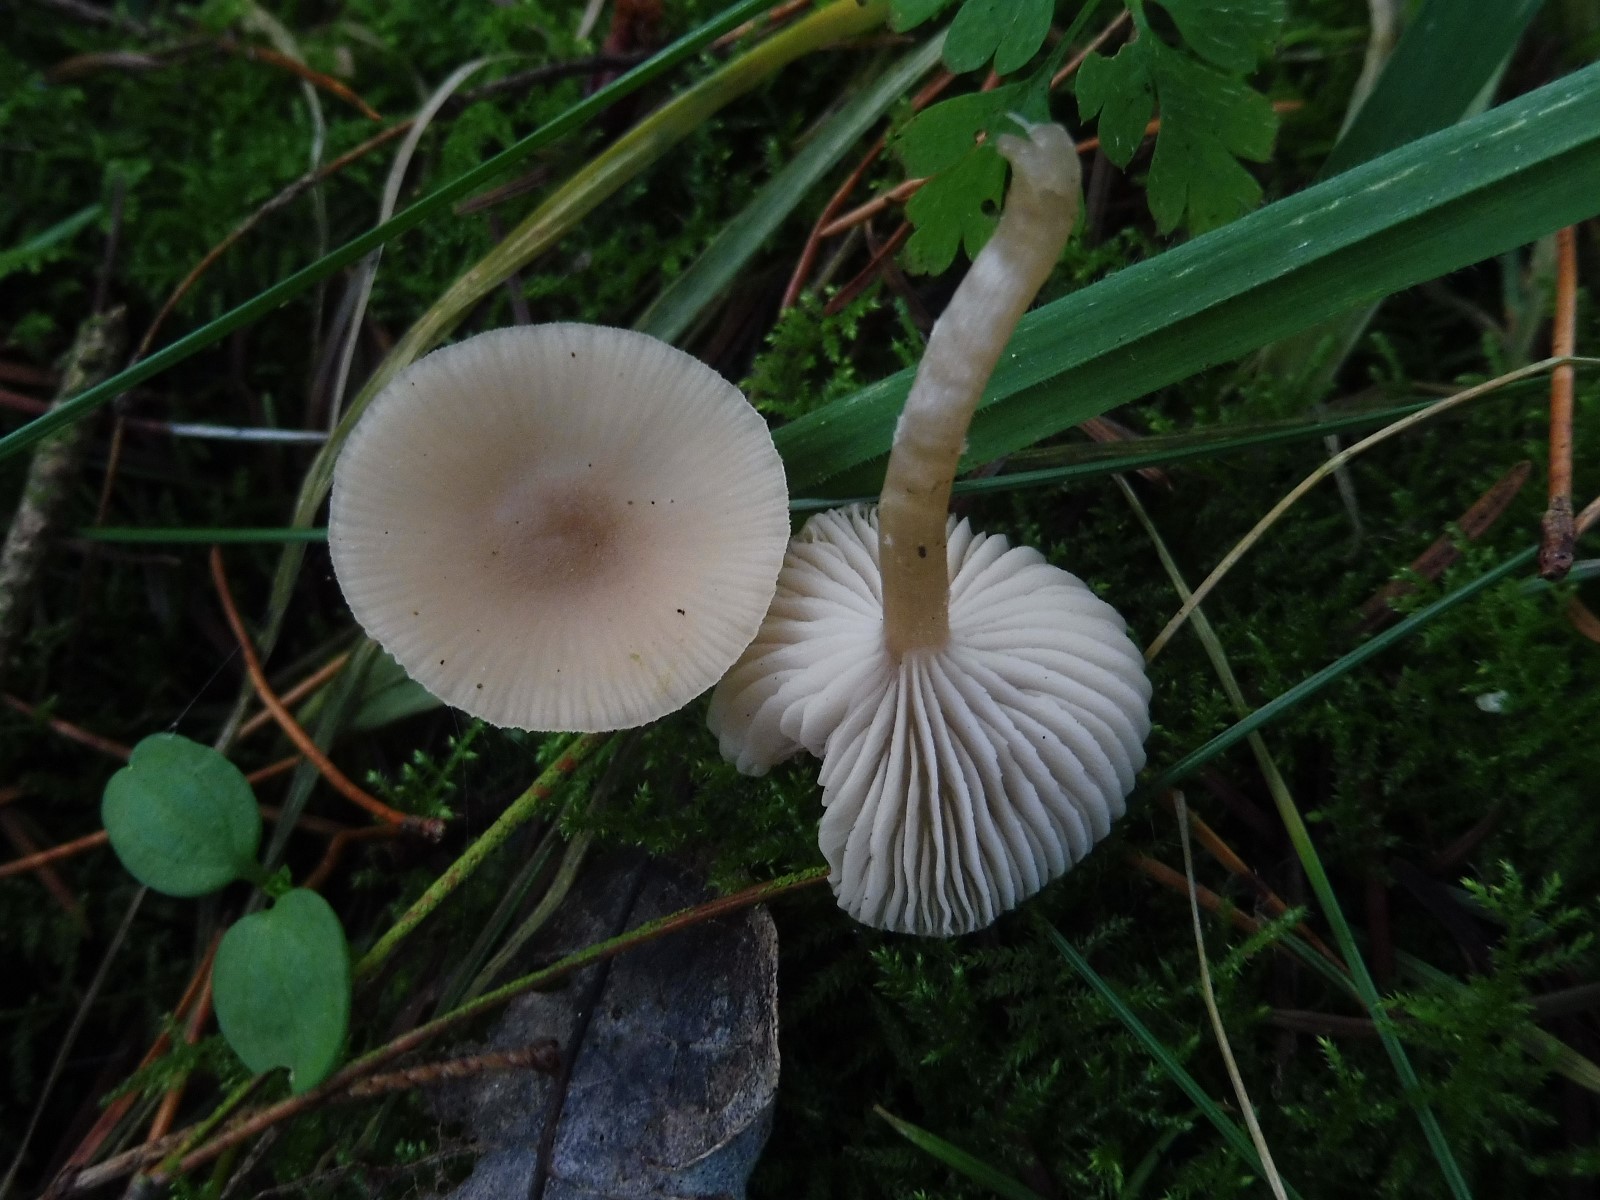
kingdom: Fungi
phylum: Basidiomycota
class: Agaricomycetes
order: Agaricales
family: Tricholomataceae
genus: Clitocybe
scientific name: Clitocybe fragrans
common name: vellugtende tragthat
